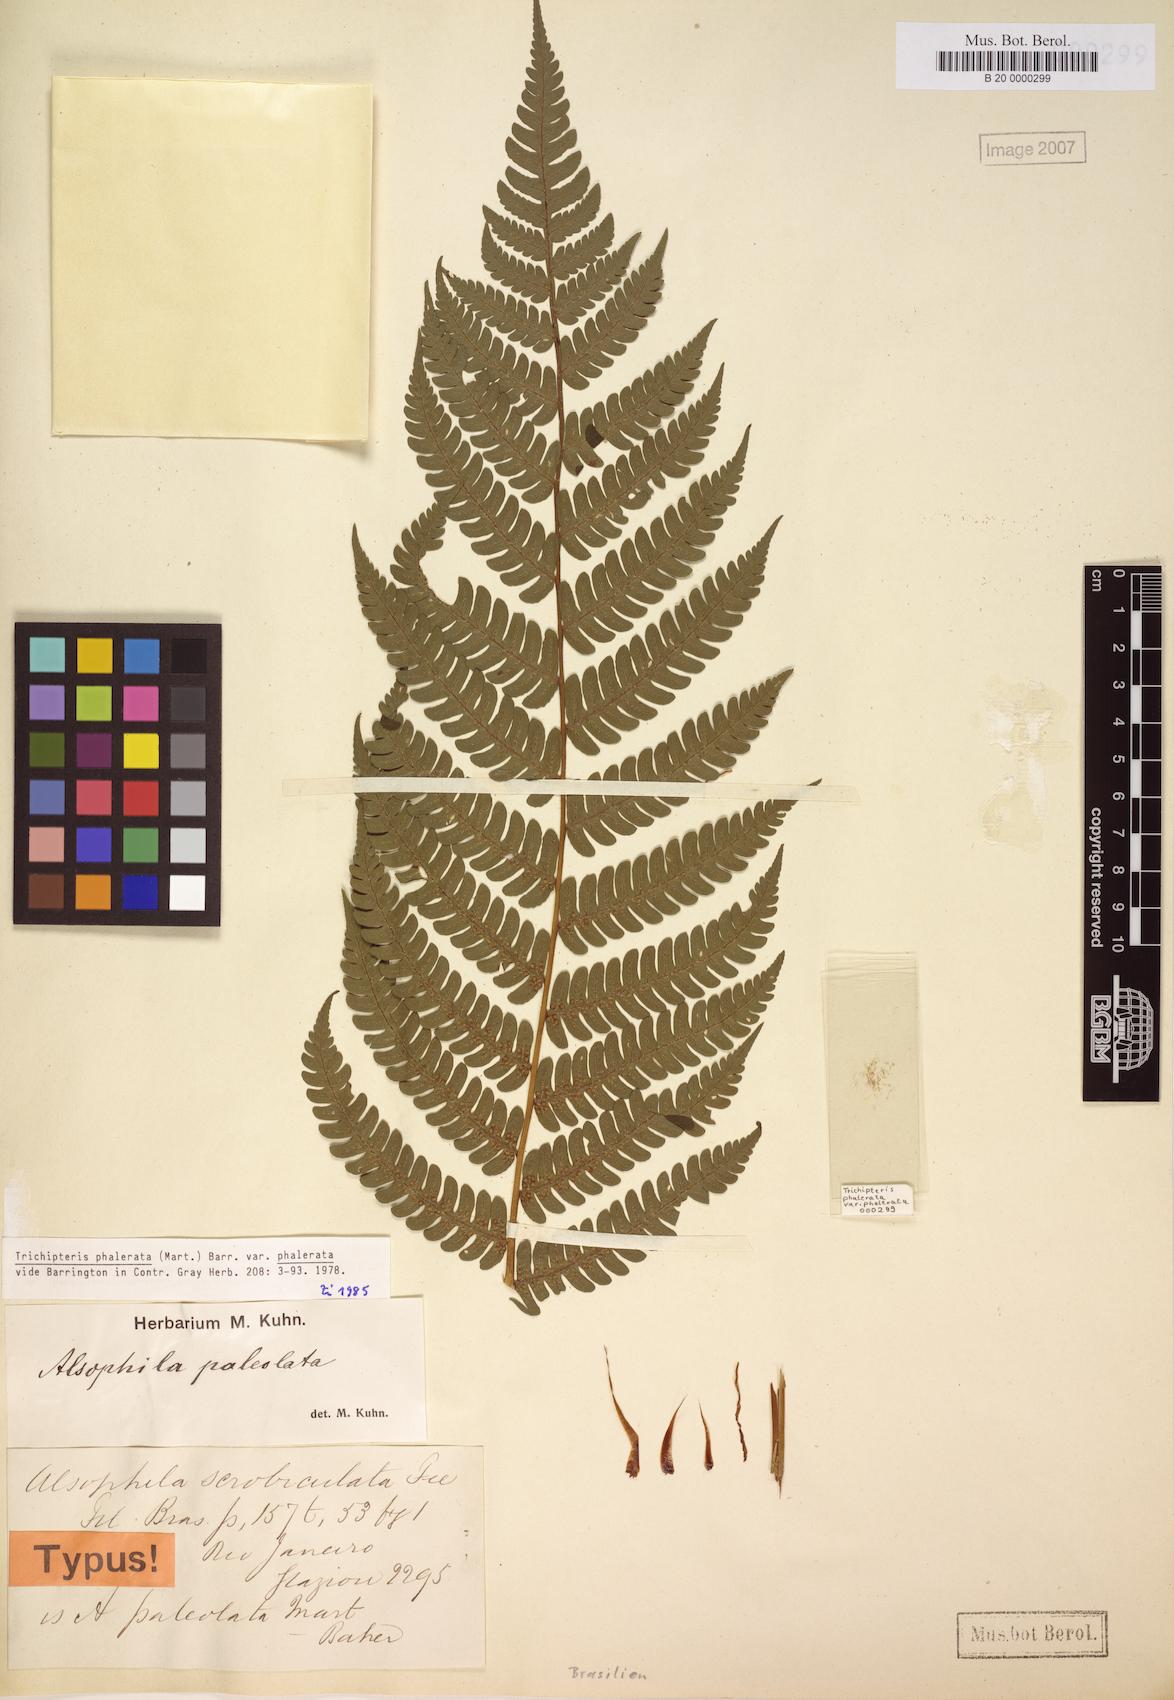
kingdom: Plantae
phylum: Tracheophyta
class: Polypodiopsida
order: Cyatheales
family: Cyatheaceae
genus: Cyathea
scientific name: Cyathea phalerata
